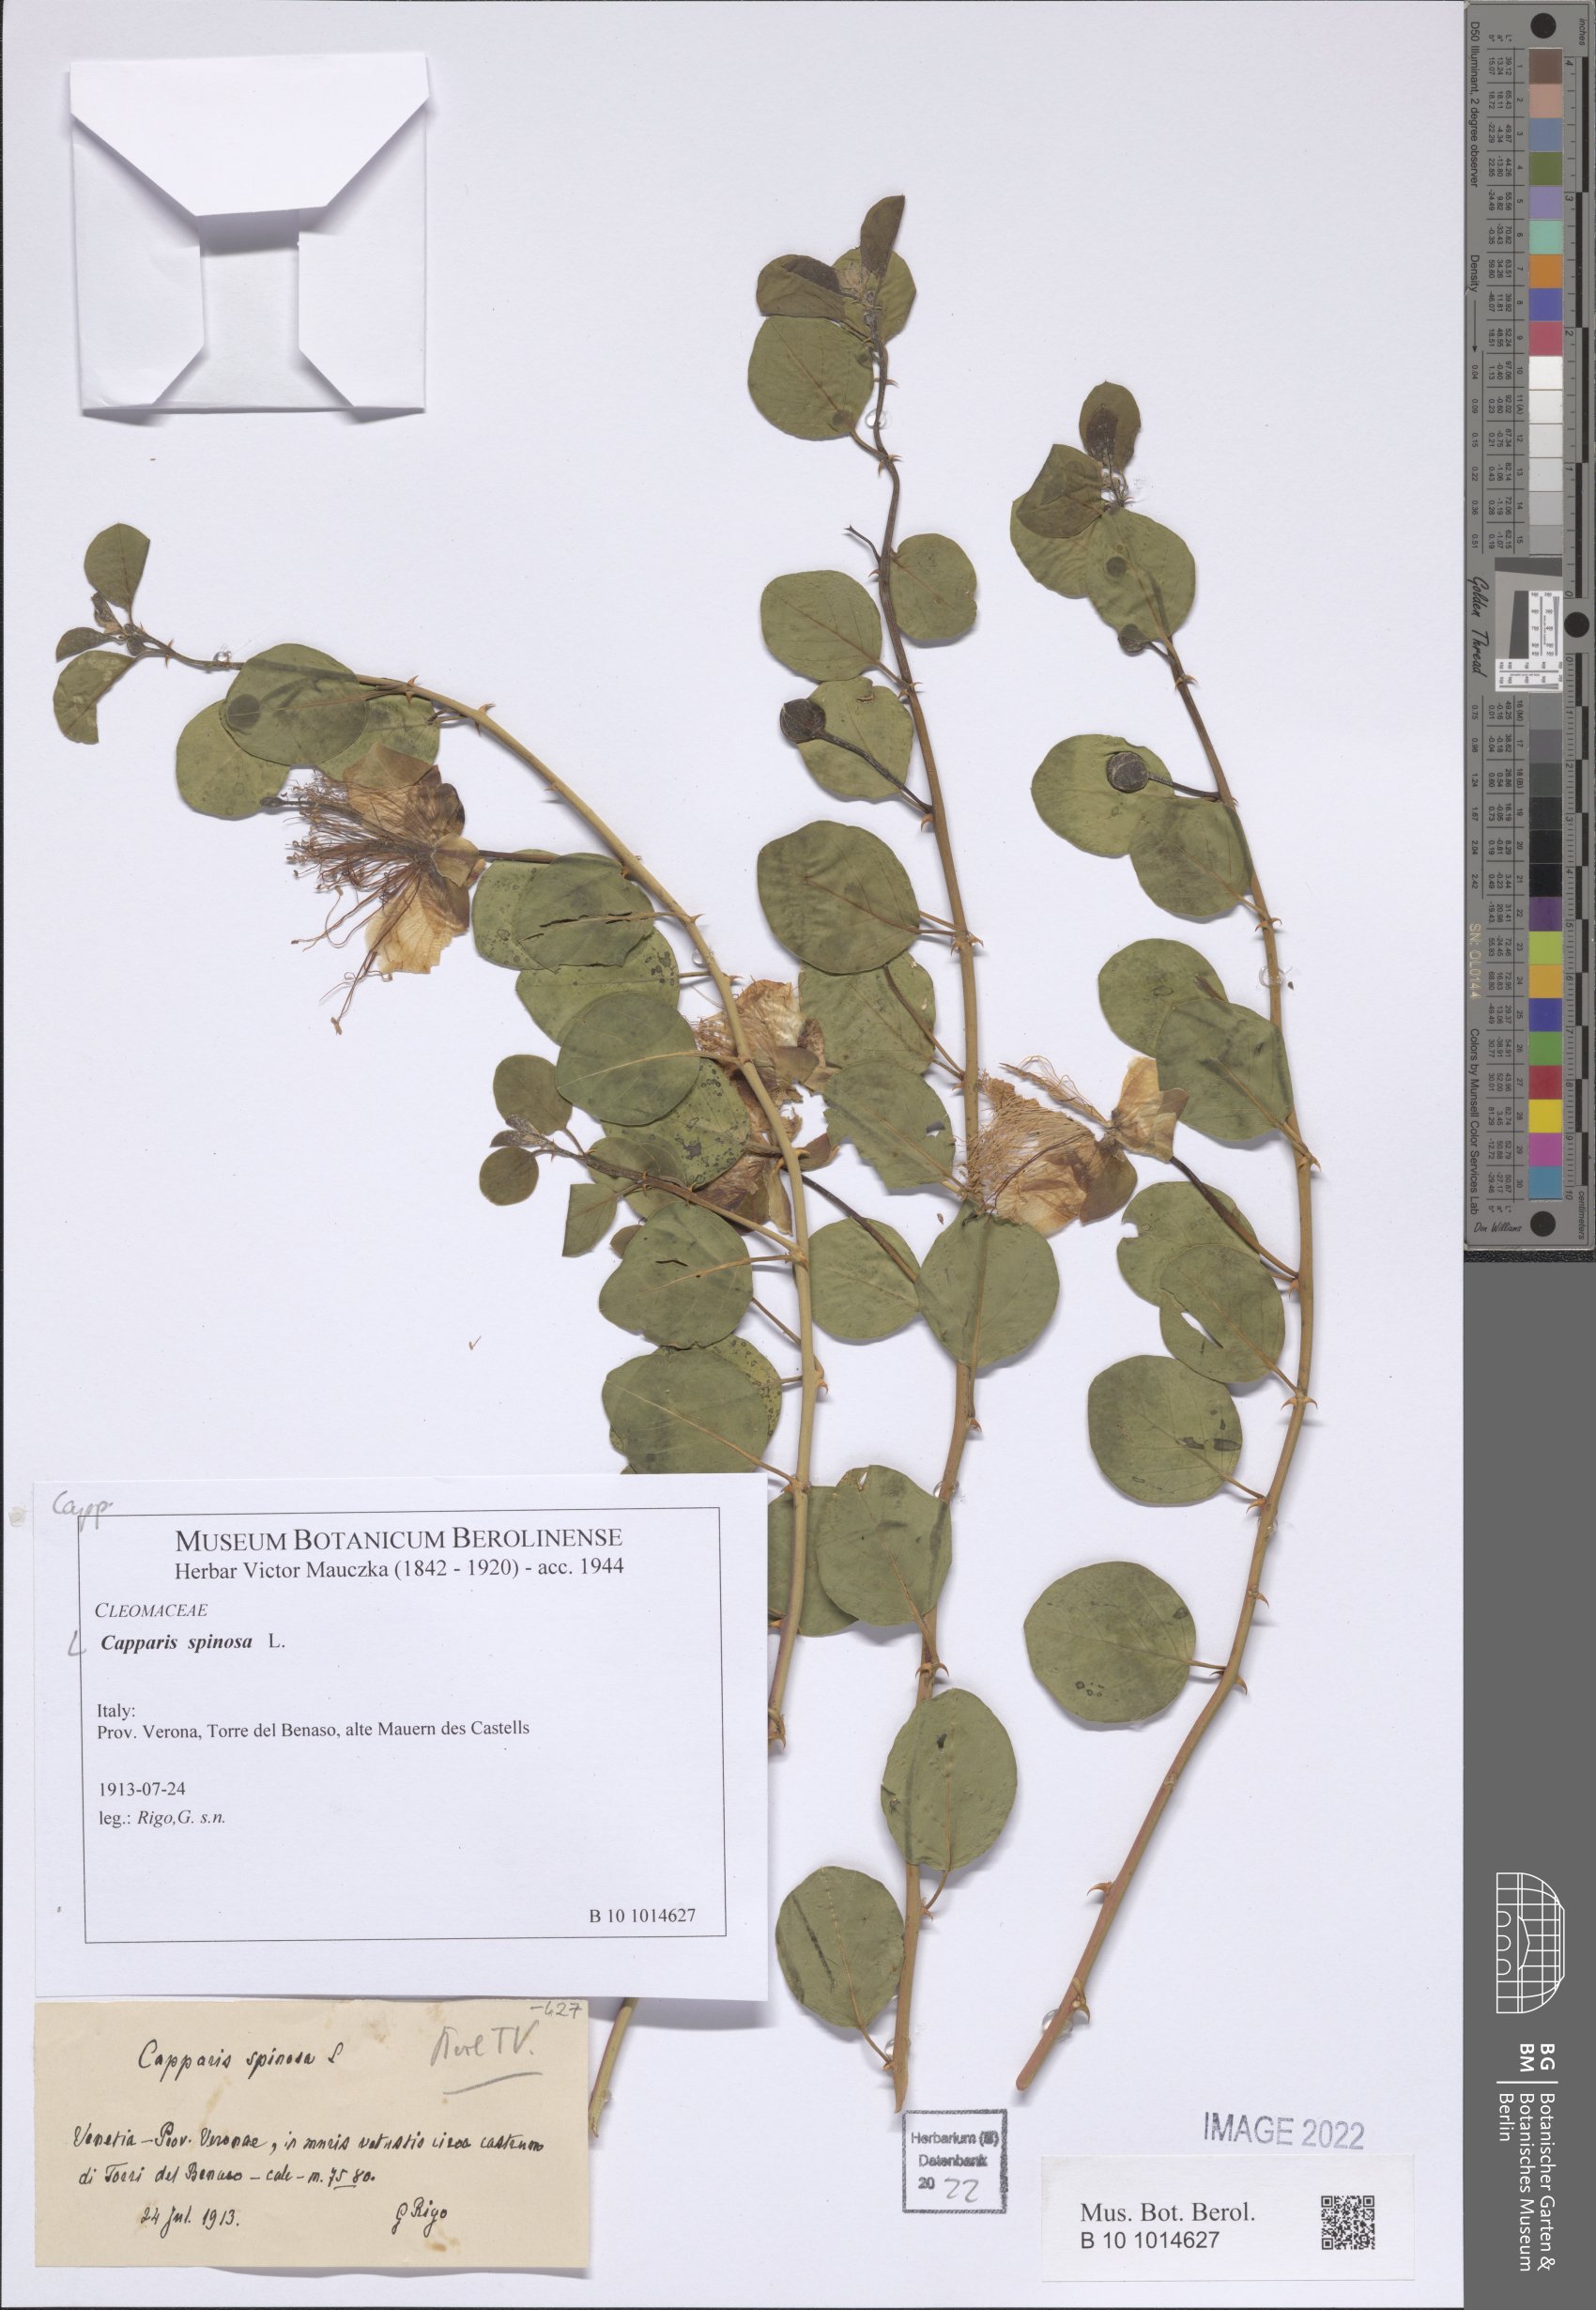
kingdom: Plantae
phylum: Tracheophyta
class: Magnoliopsida
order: Brassicales
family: Capparaceae
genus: Capparis
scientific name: Capparis spinosa
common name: Caper
